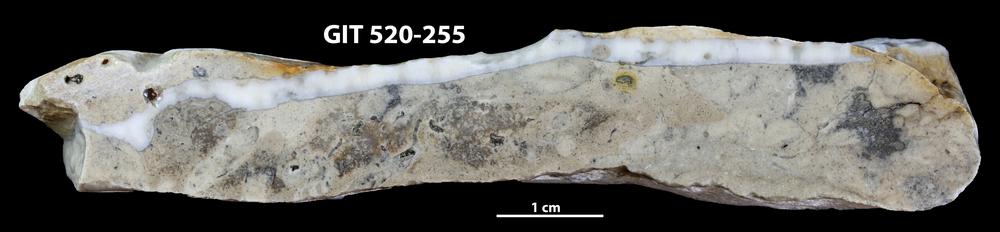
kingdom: Animalia
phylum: Cnidaria
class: Anthozoa
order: Heliolitina
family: Coccoserididae
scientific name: Coccoserididae
